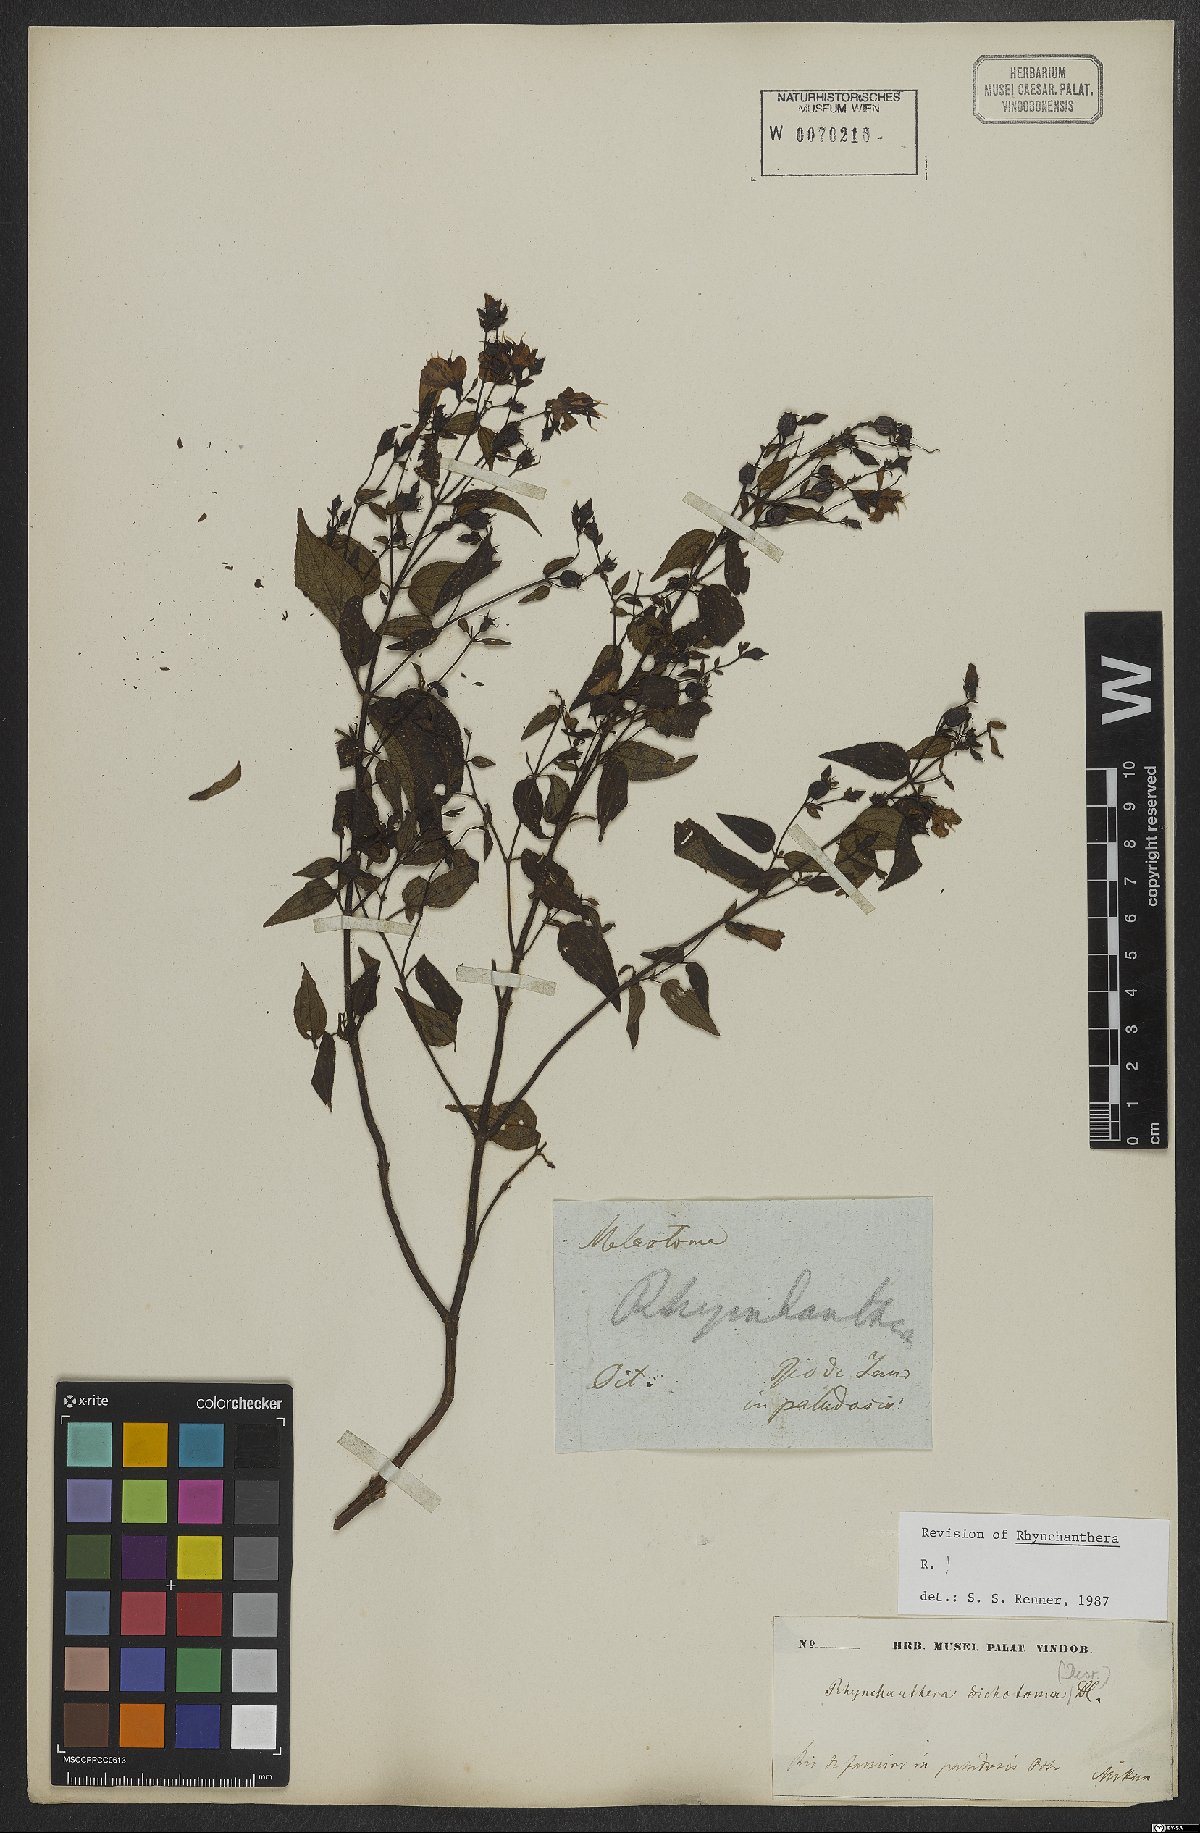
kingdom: Plantae
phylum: Tracheophyta
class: Magnoliopsida
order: Myrtales
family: Melastomataceae
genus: Rhynchanthera
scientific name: Rhynchanthera dichotoma
